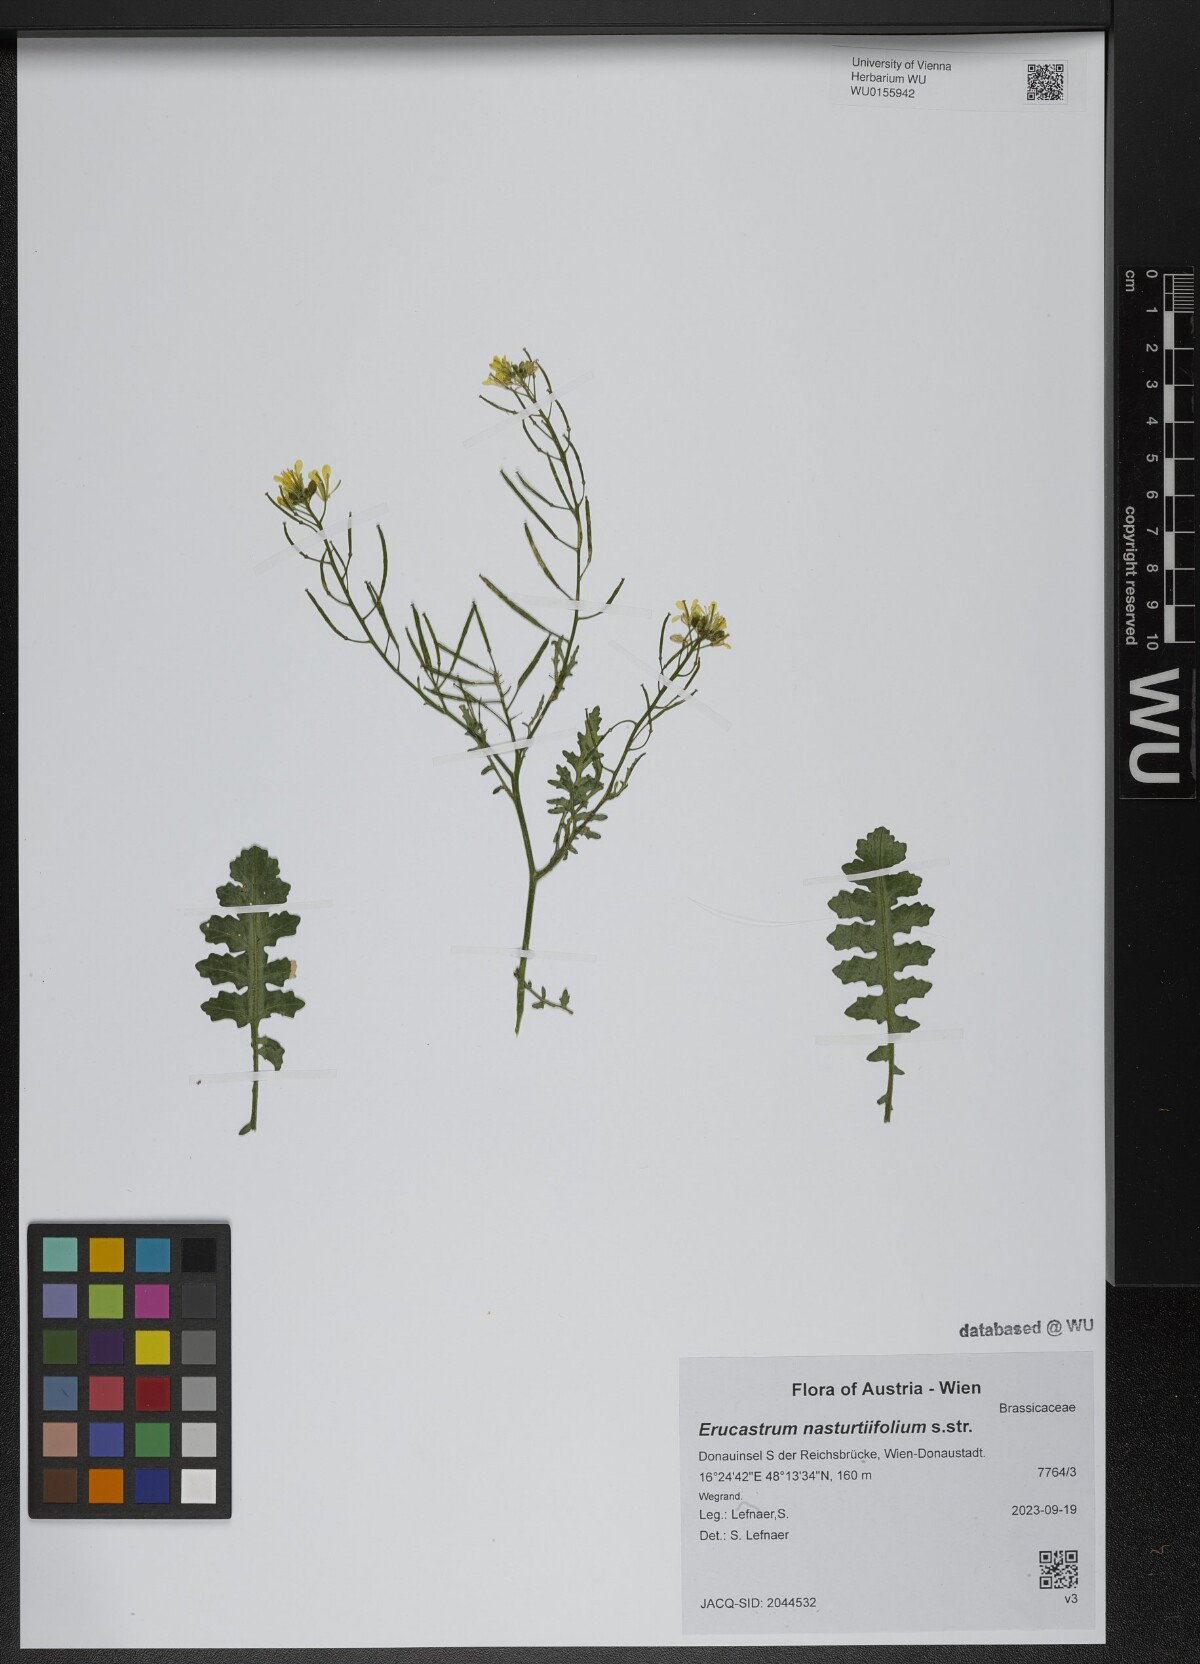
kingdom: Plantae
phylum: Tracheophyta
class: Magnoliopsida
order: Brassicales
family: Brassicaceae
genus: Erucastrum
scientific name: Erucastrum nasturtiifolium
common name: Watercress-leaf rocket
